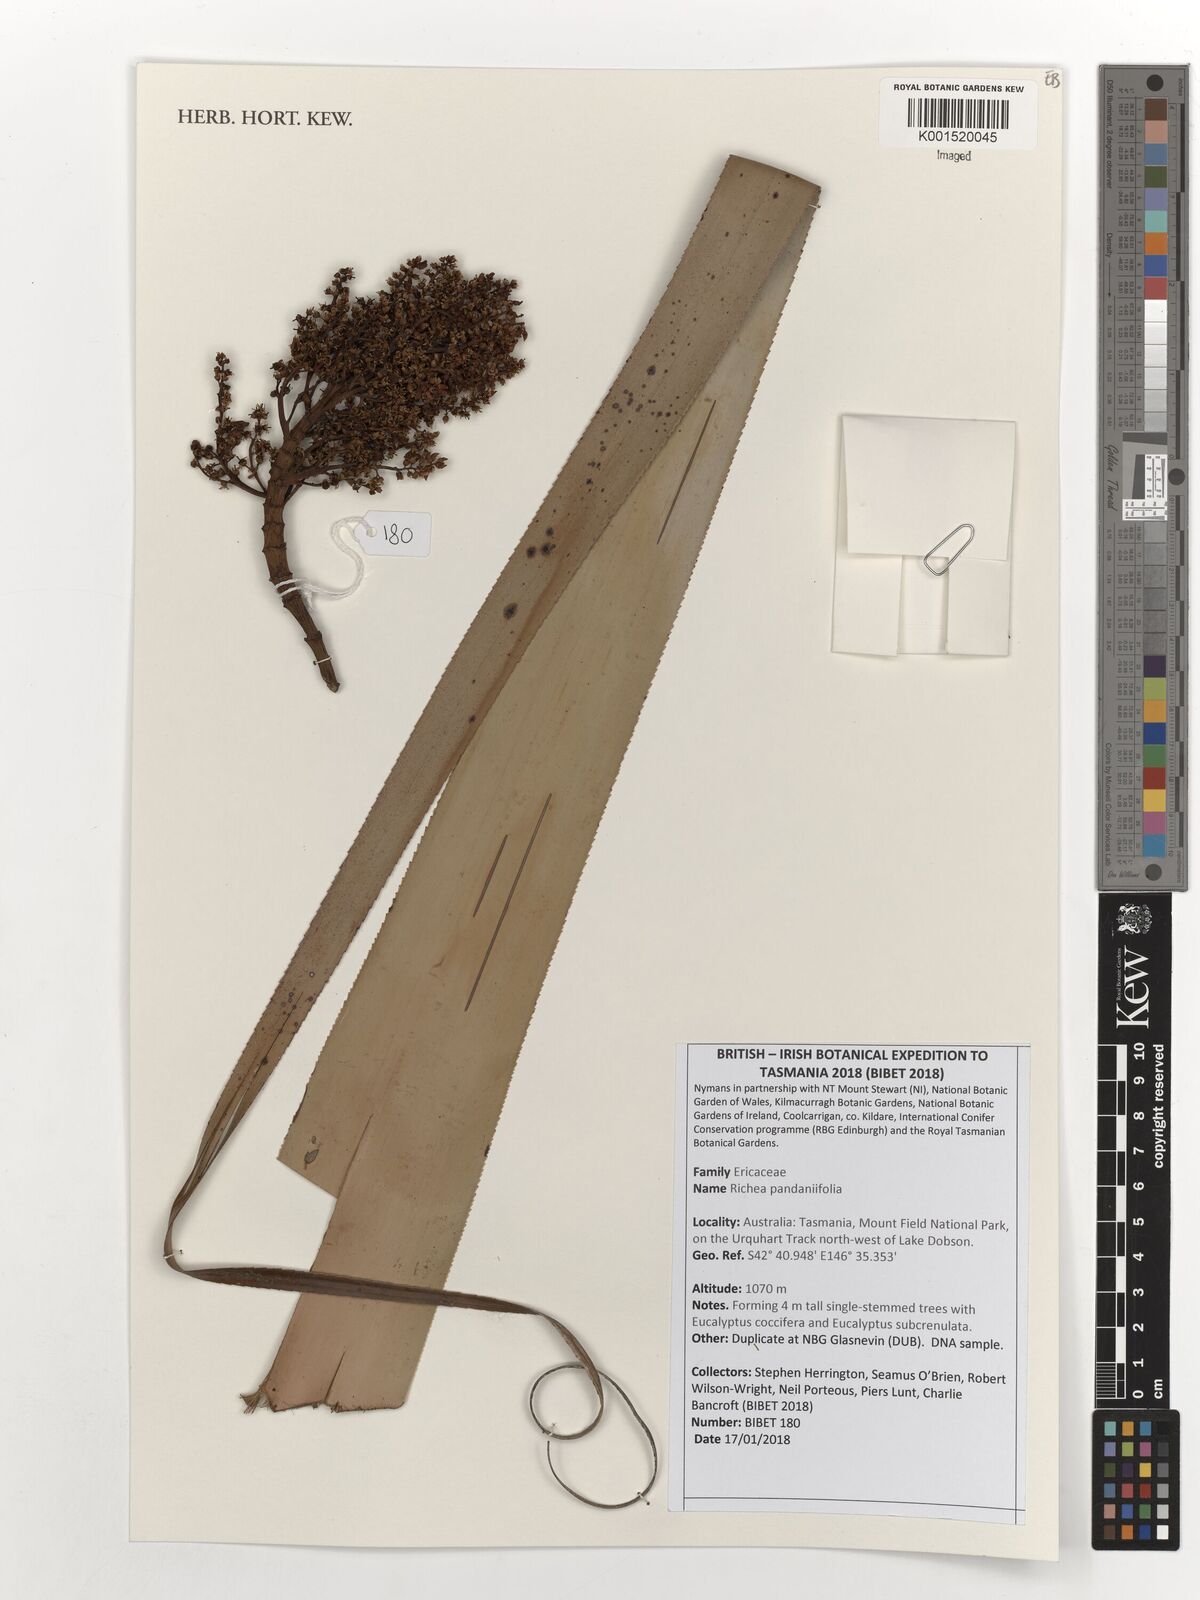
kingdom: Plantae
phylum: Tracheophyta
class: Magnoliopsida
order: Ericales
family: Ericaceae
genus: Dracophyllum
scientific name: Dracophyllum pandanifolium
